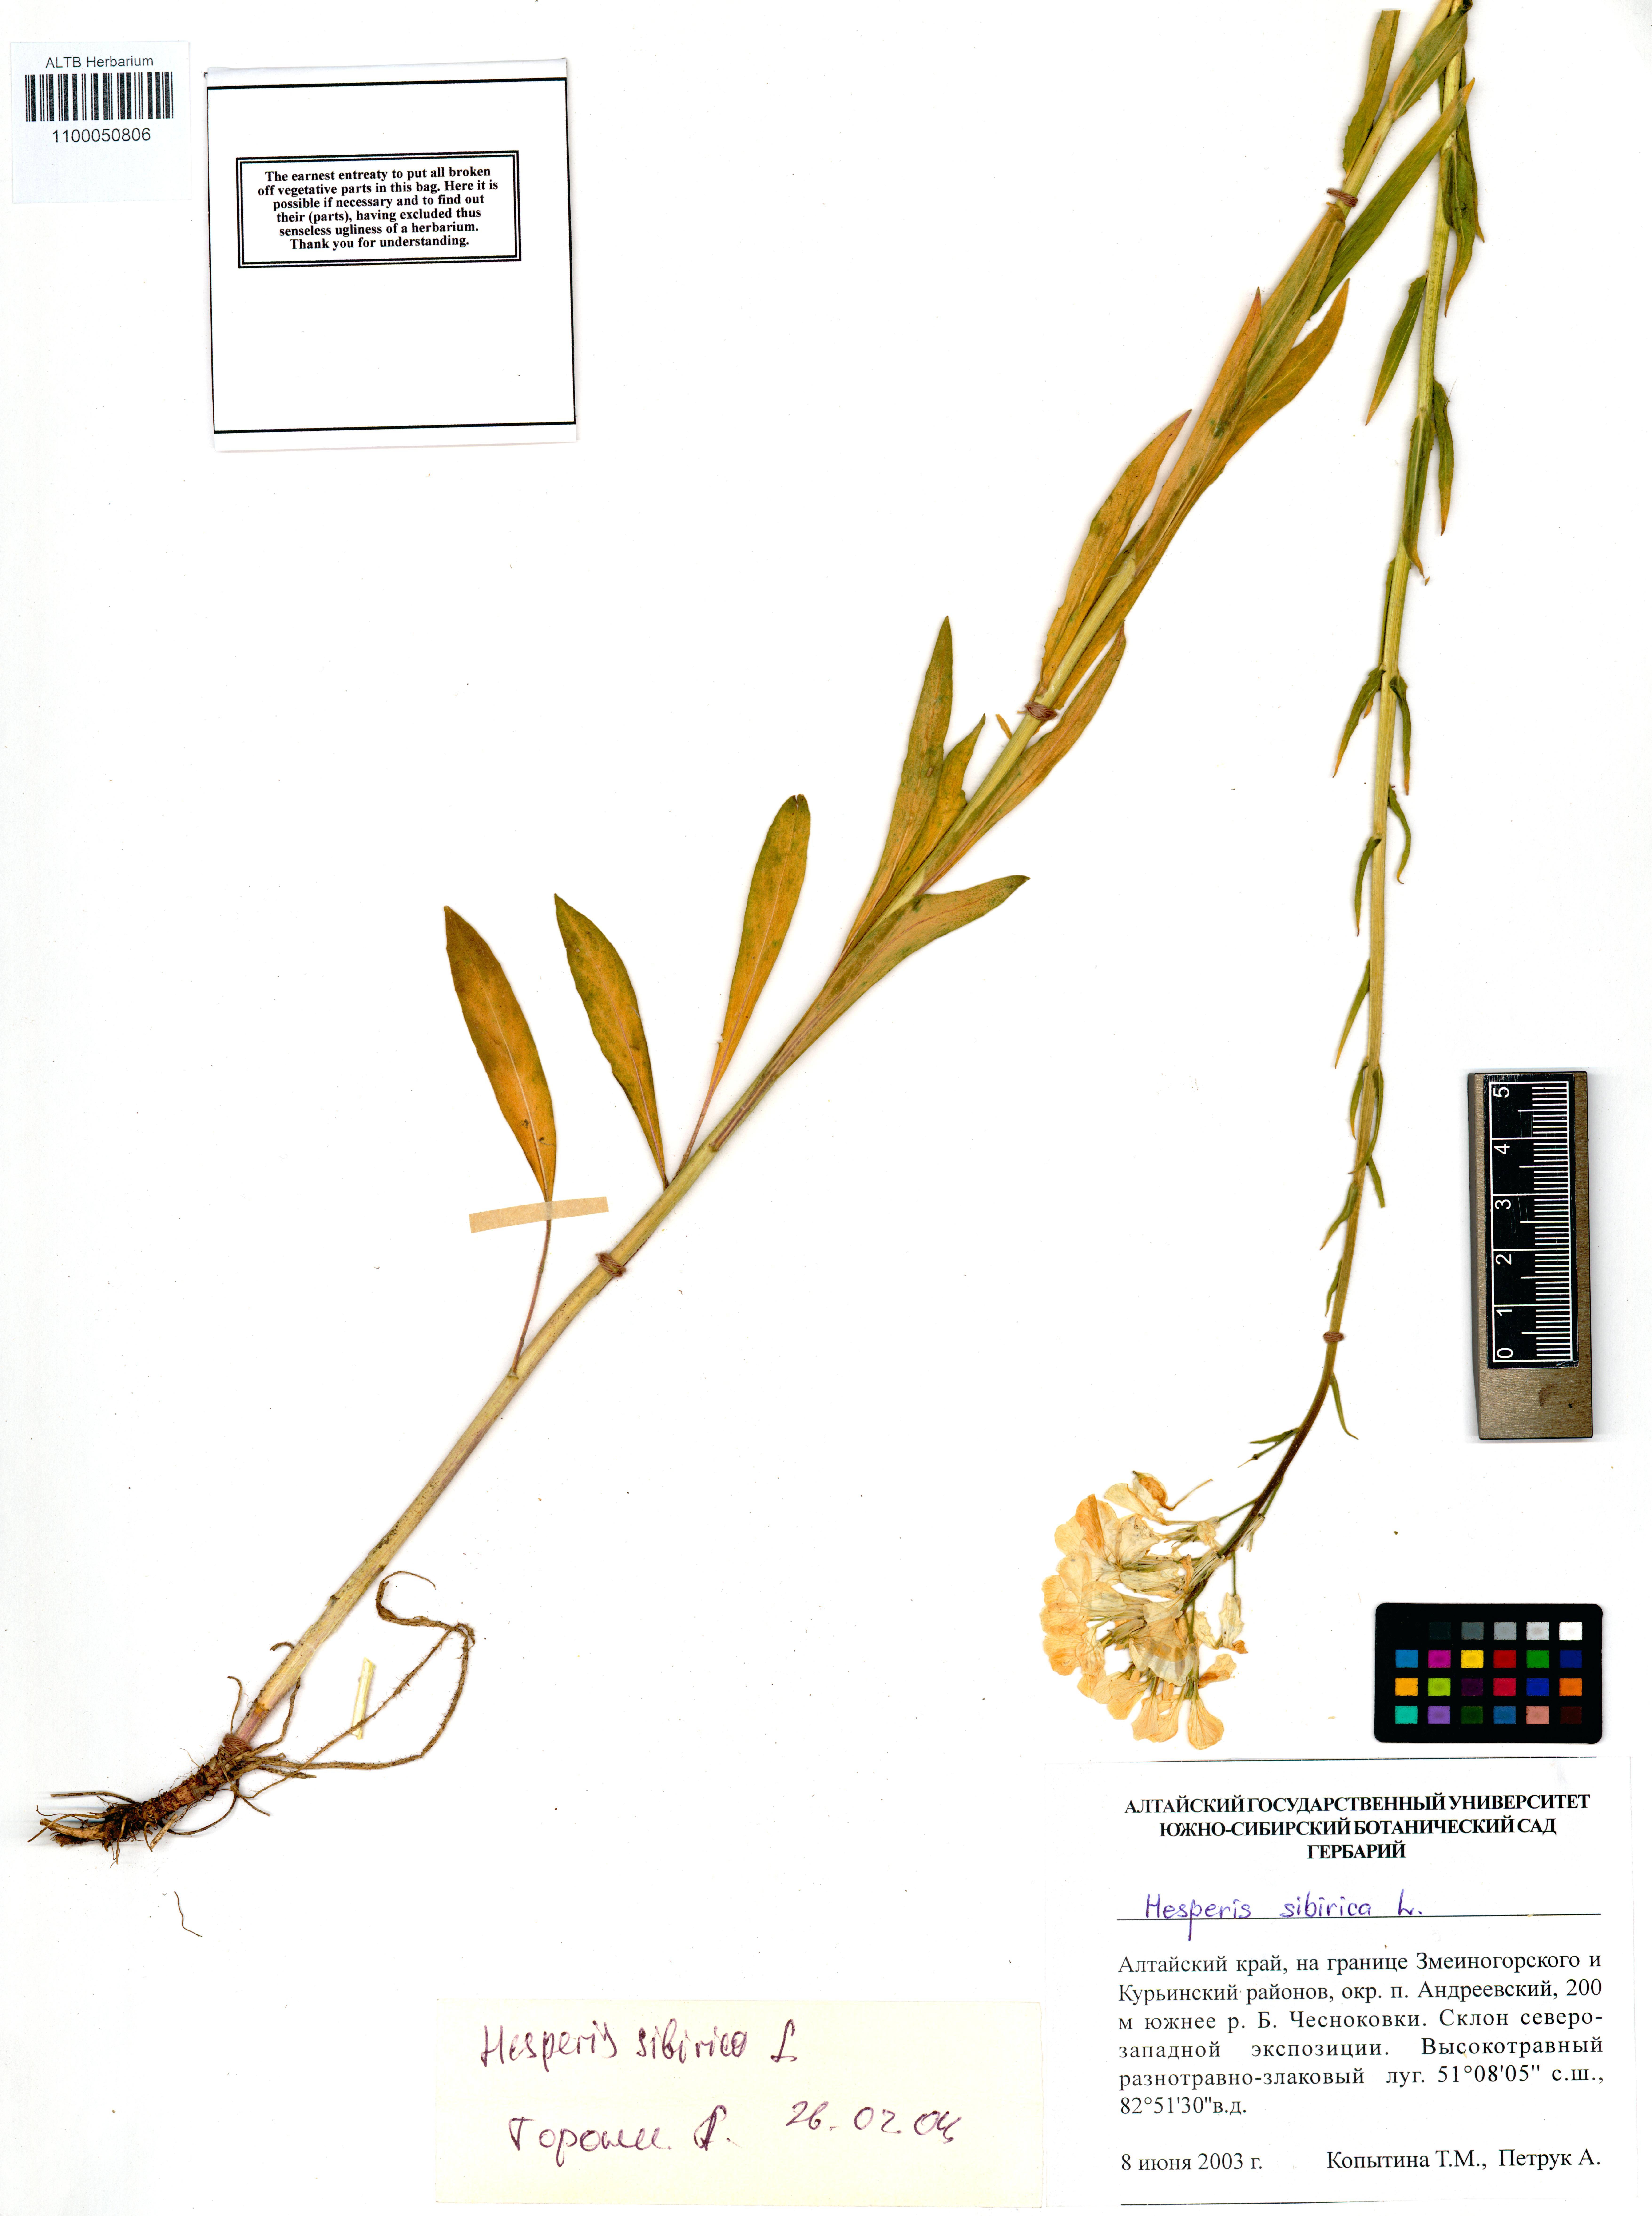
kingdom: Plantae
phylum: Tracheophyta
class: Magnoliopsida
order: Brassicales
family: Brassicaceae
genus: Hesperis
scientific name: Hesperis sibirica
